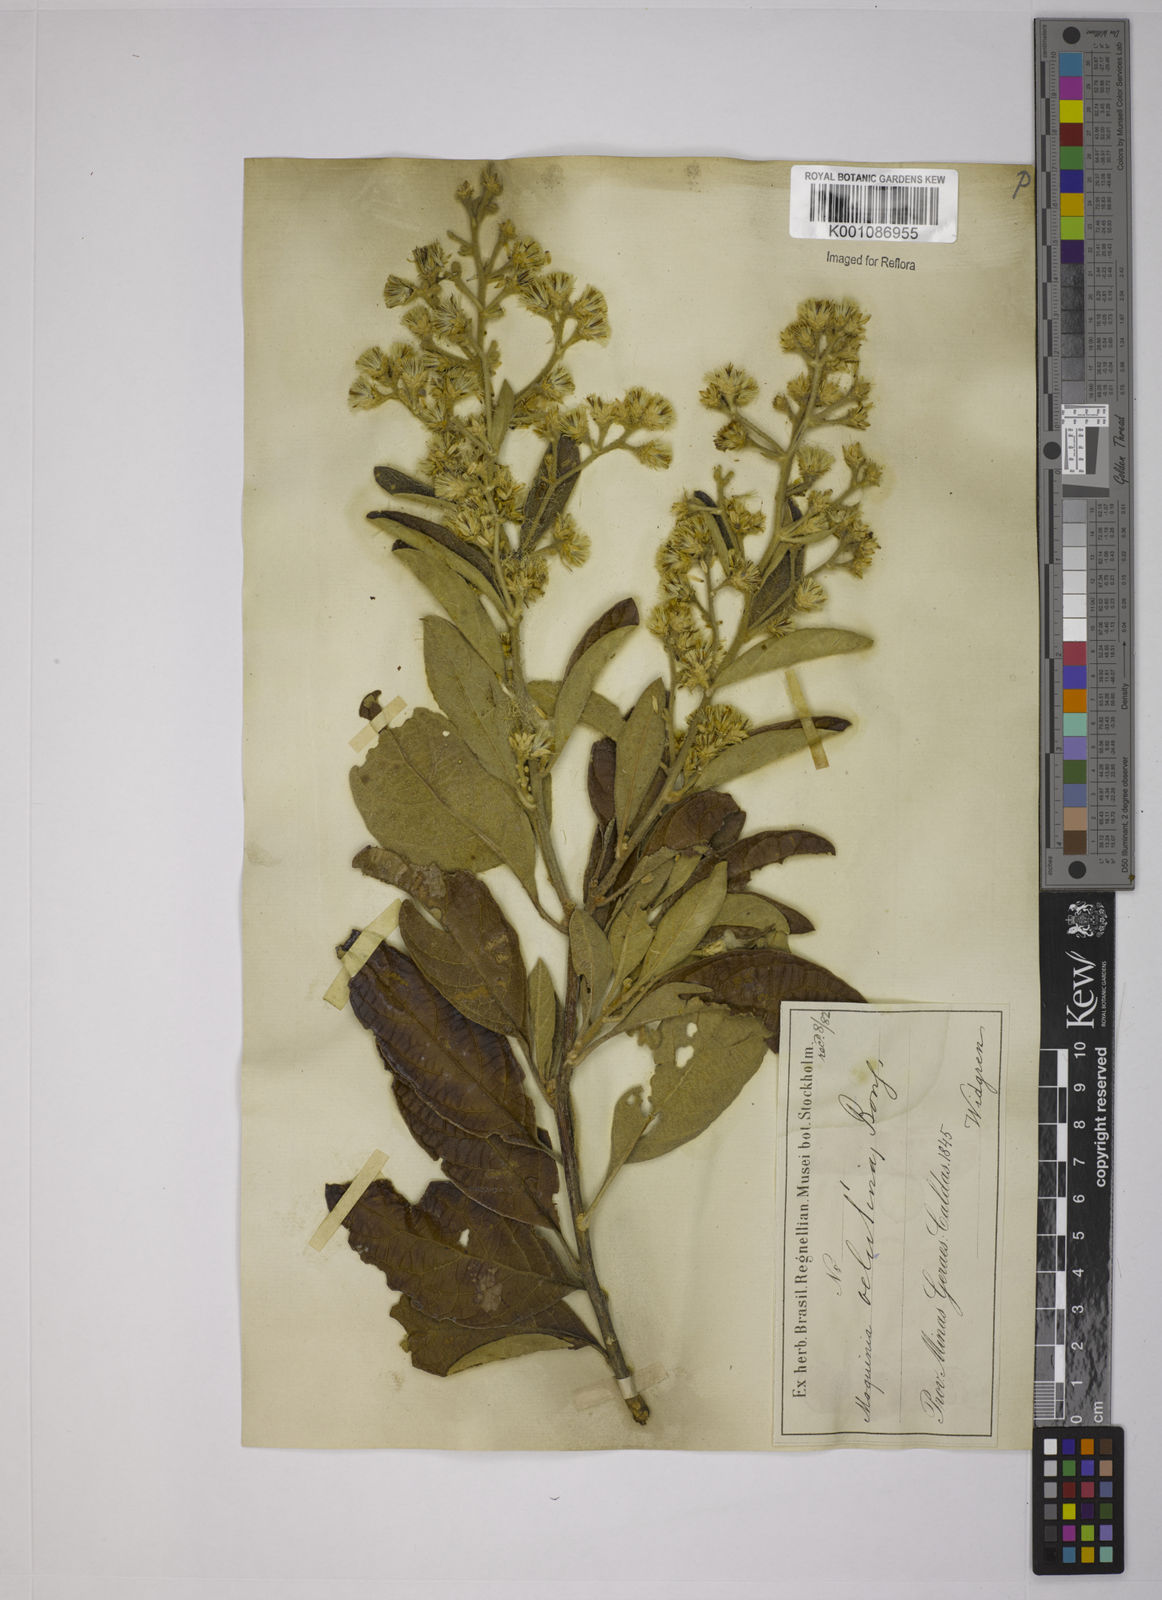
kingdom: Plantae
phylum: Tracheophyta
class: Magnoliopsida
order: Asterales
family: Asteraceae
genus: Moquiniastrum
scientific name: Moquiniastrum polymorphum
